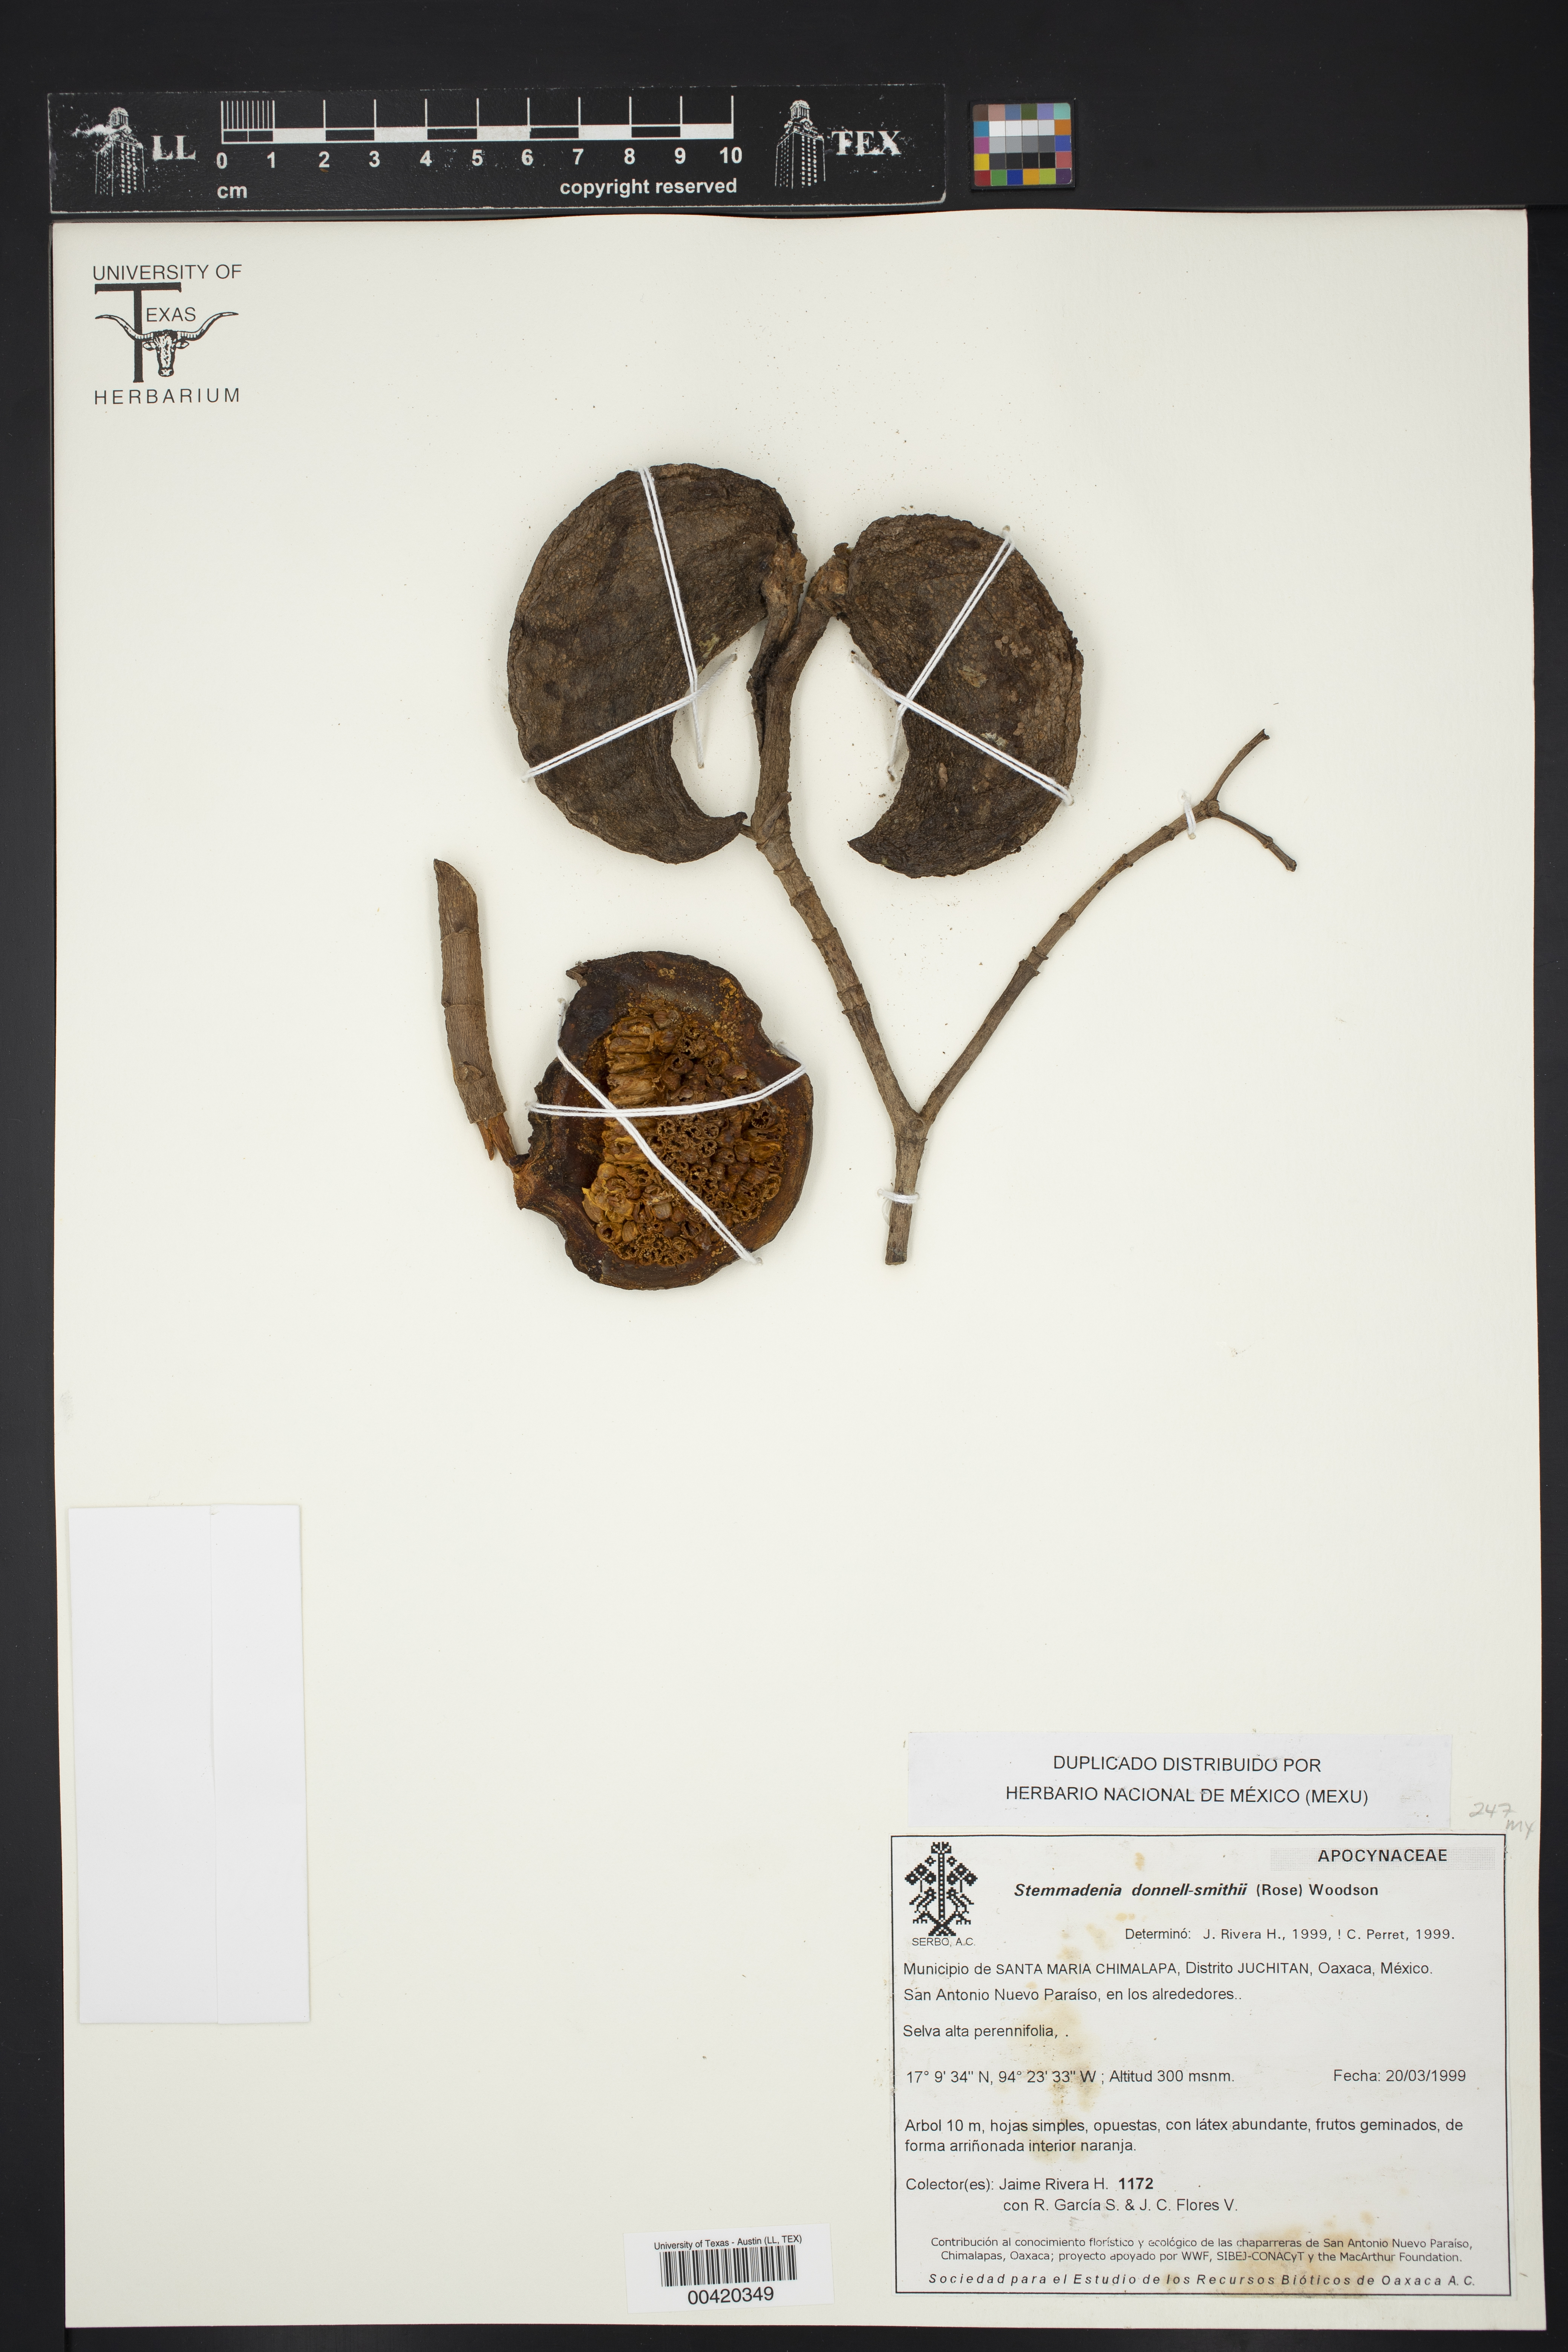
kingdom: Plantae
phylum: Tracheophyta
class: Magnoliopsida
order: Gentianales
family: Apocynaceae
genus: Tabernaemontana
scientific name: Tabernaemontana donnell-smithii
